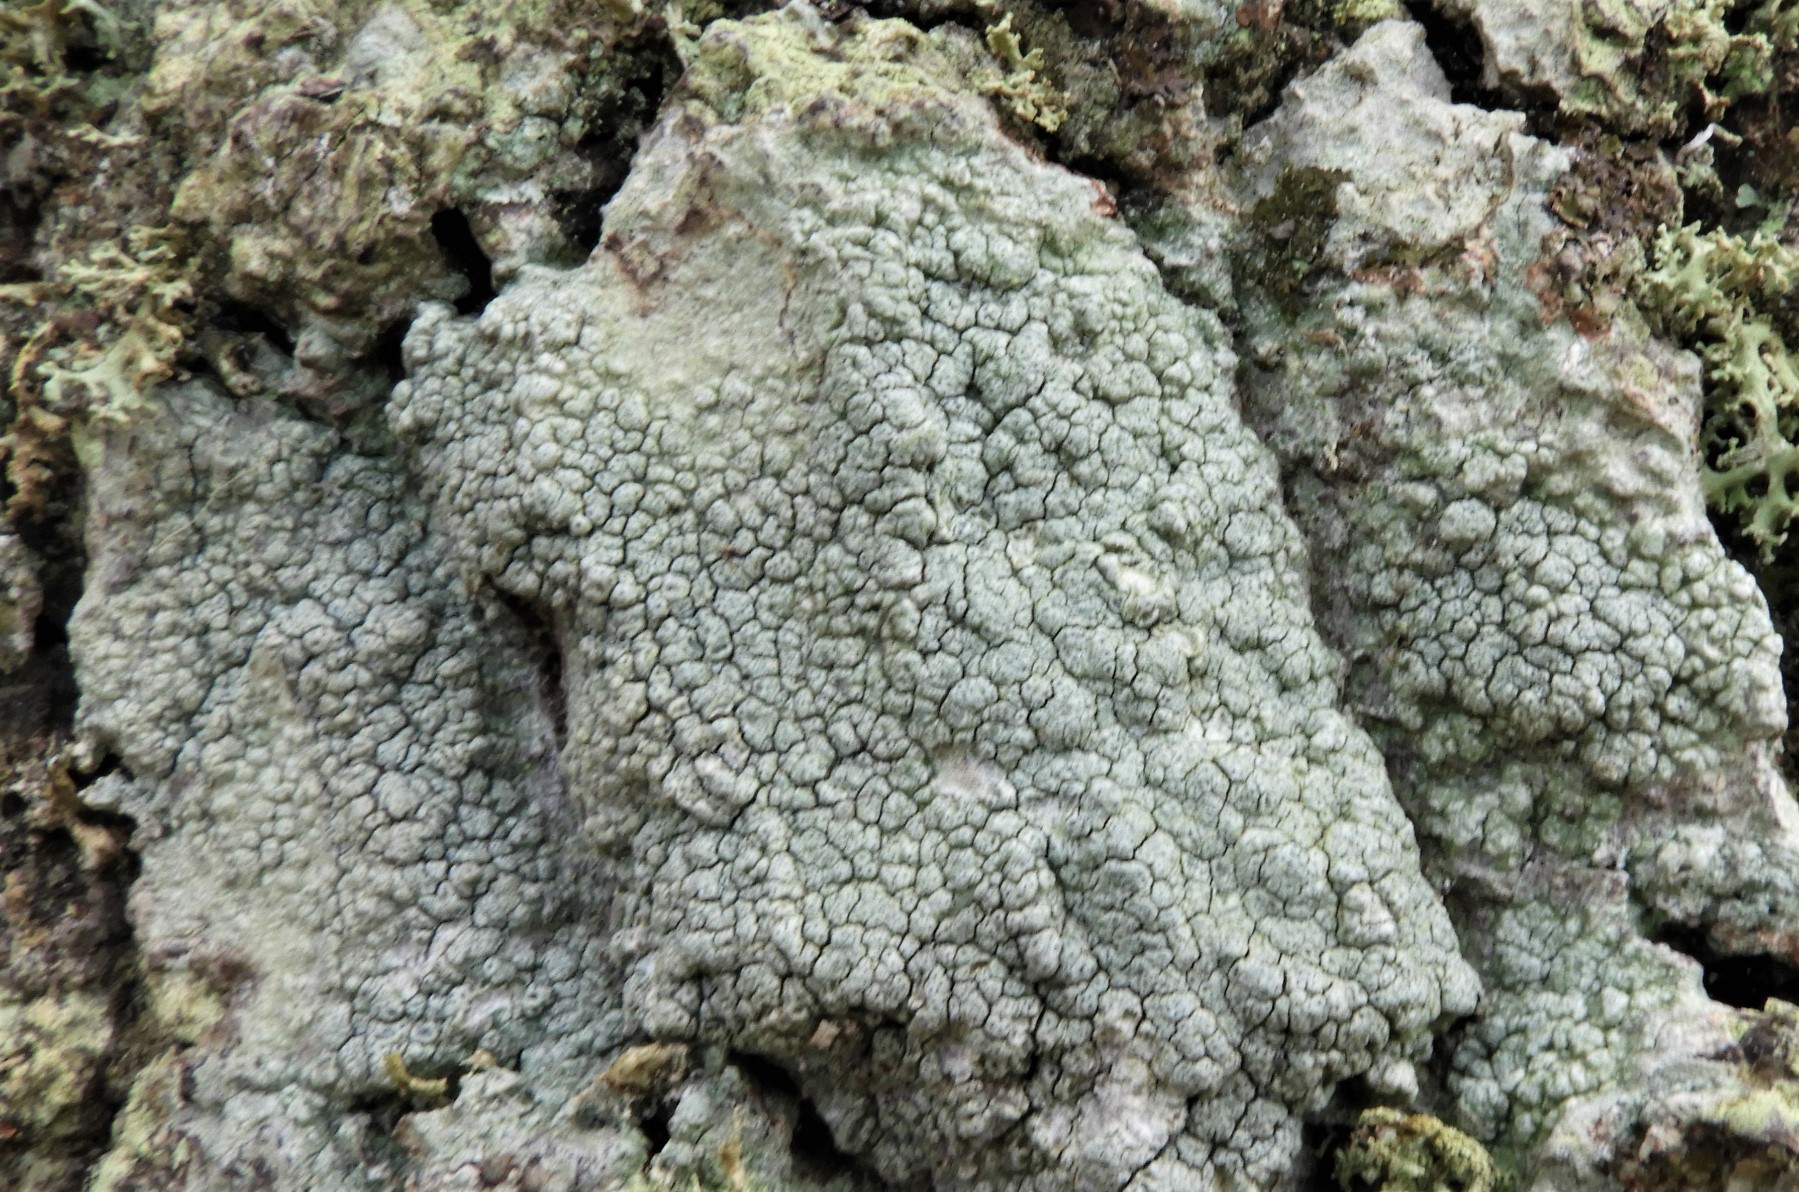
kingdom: Fungi
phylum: Ascomycota
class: Lecanoromycetes
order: Pertusariales
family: Pertusariaceae
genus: Pertusaria
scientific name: Pertusaria pertusa
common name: almindelig prikvortelav
